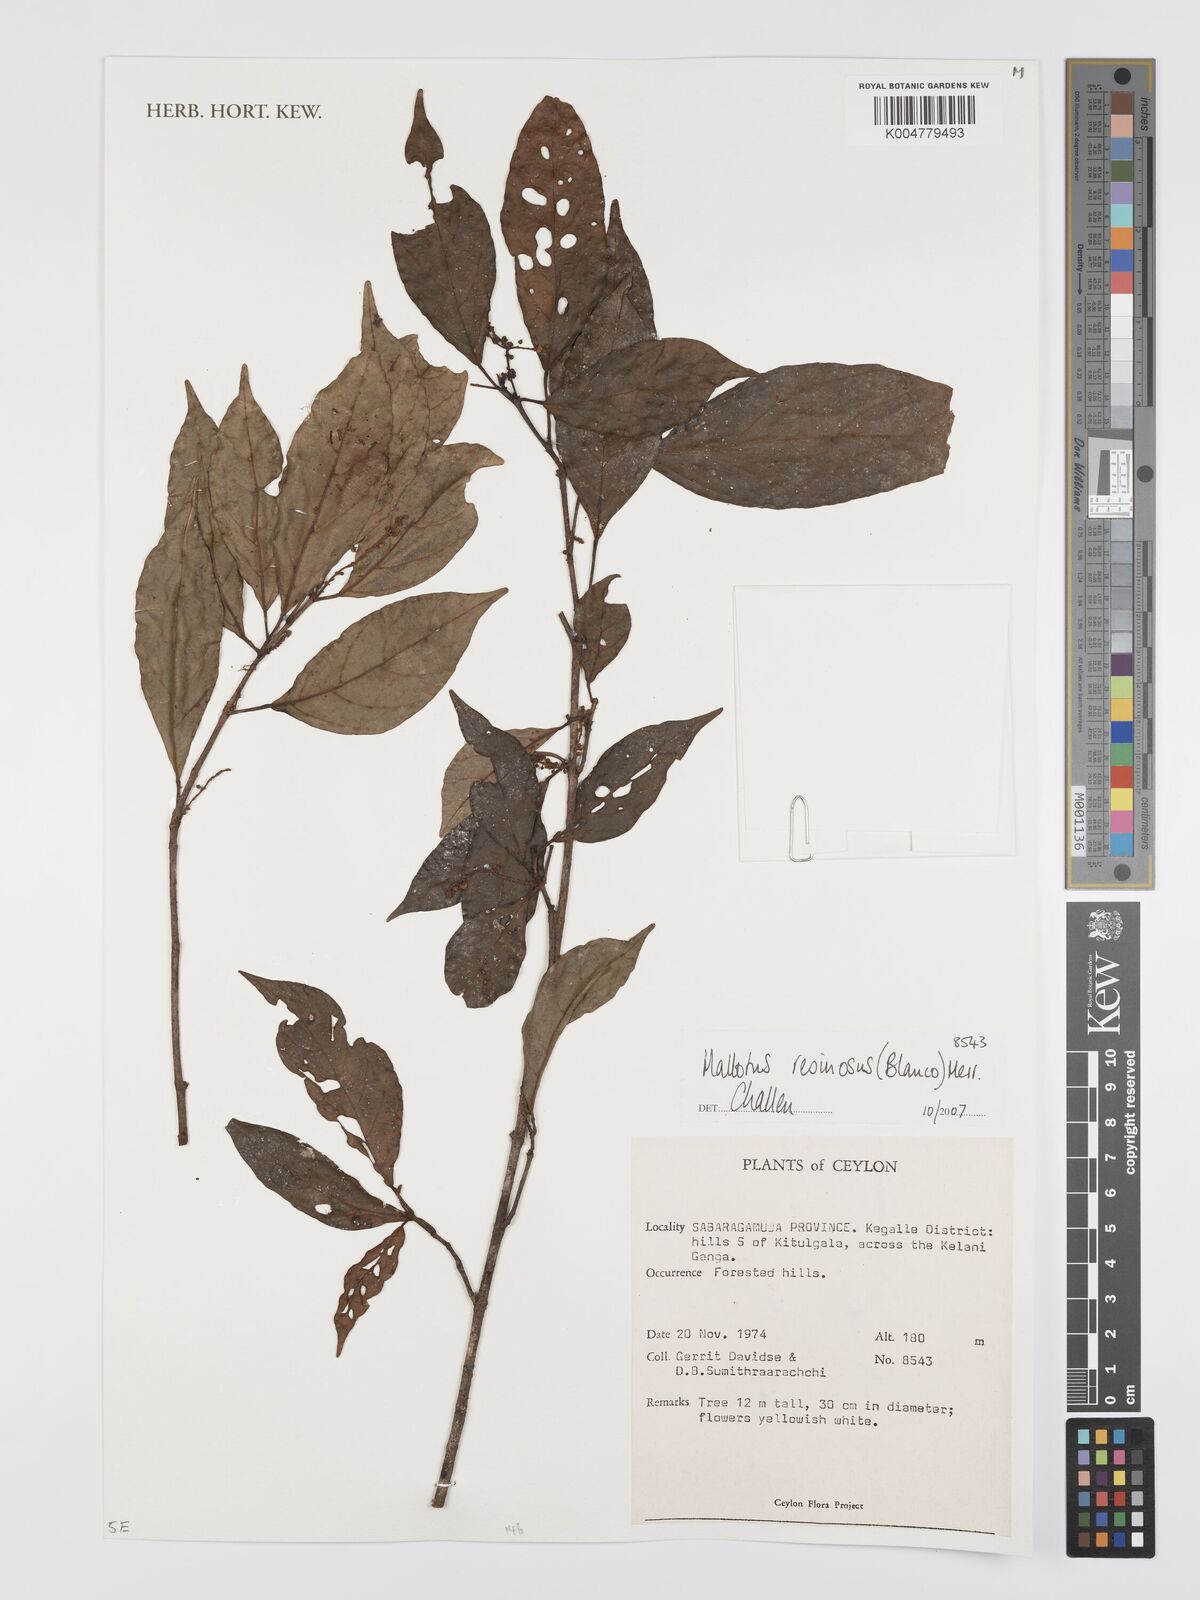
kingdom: Plantae
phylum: Tracheophyta
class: Magnoliopsida
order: Malpighiales
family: Euphorbiaceae
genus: Mallotus
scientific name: Mallotus resinosus
